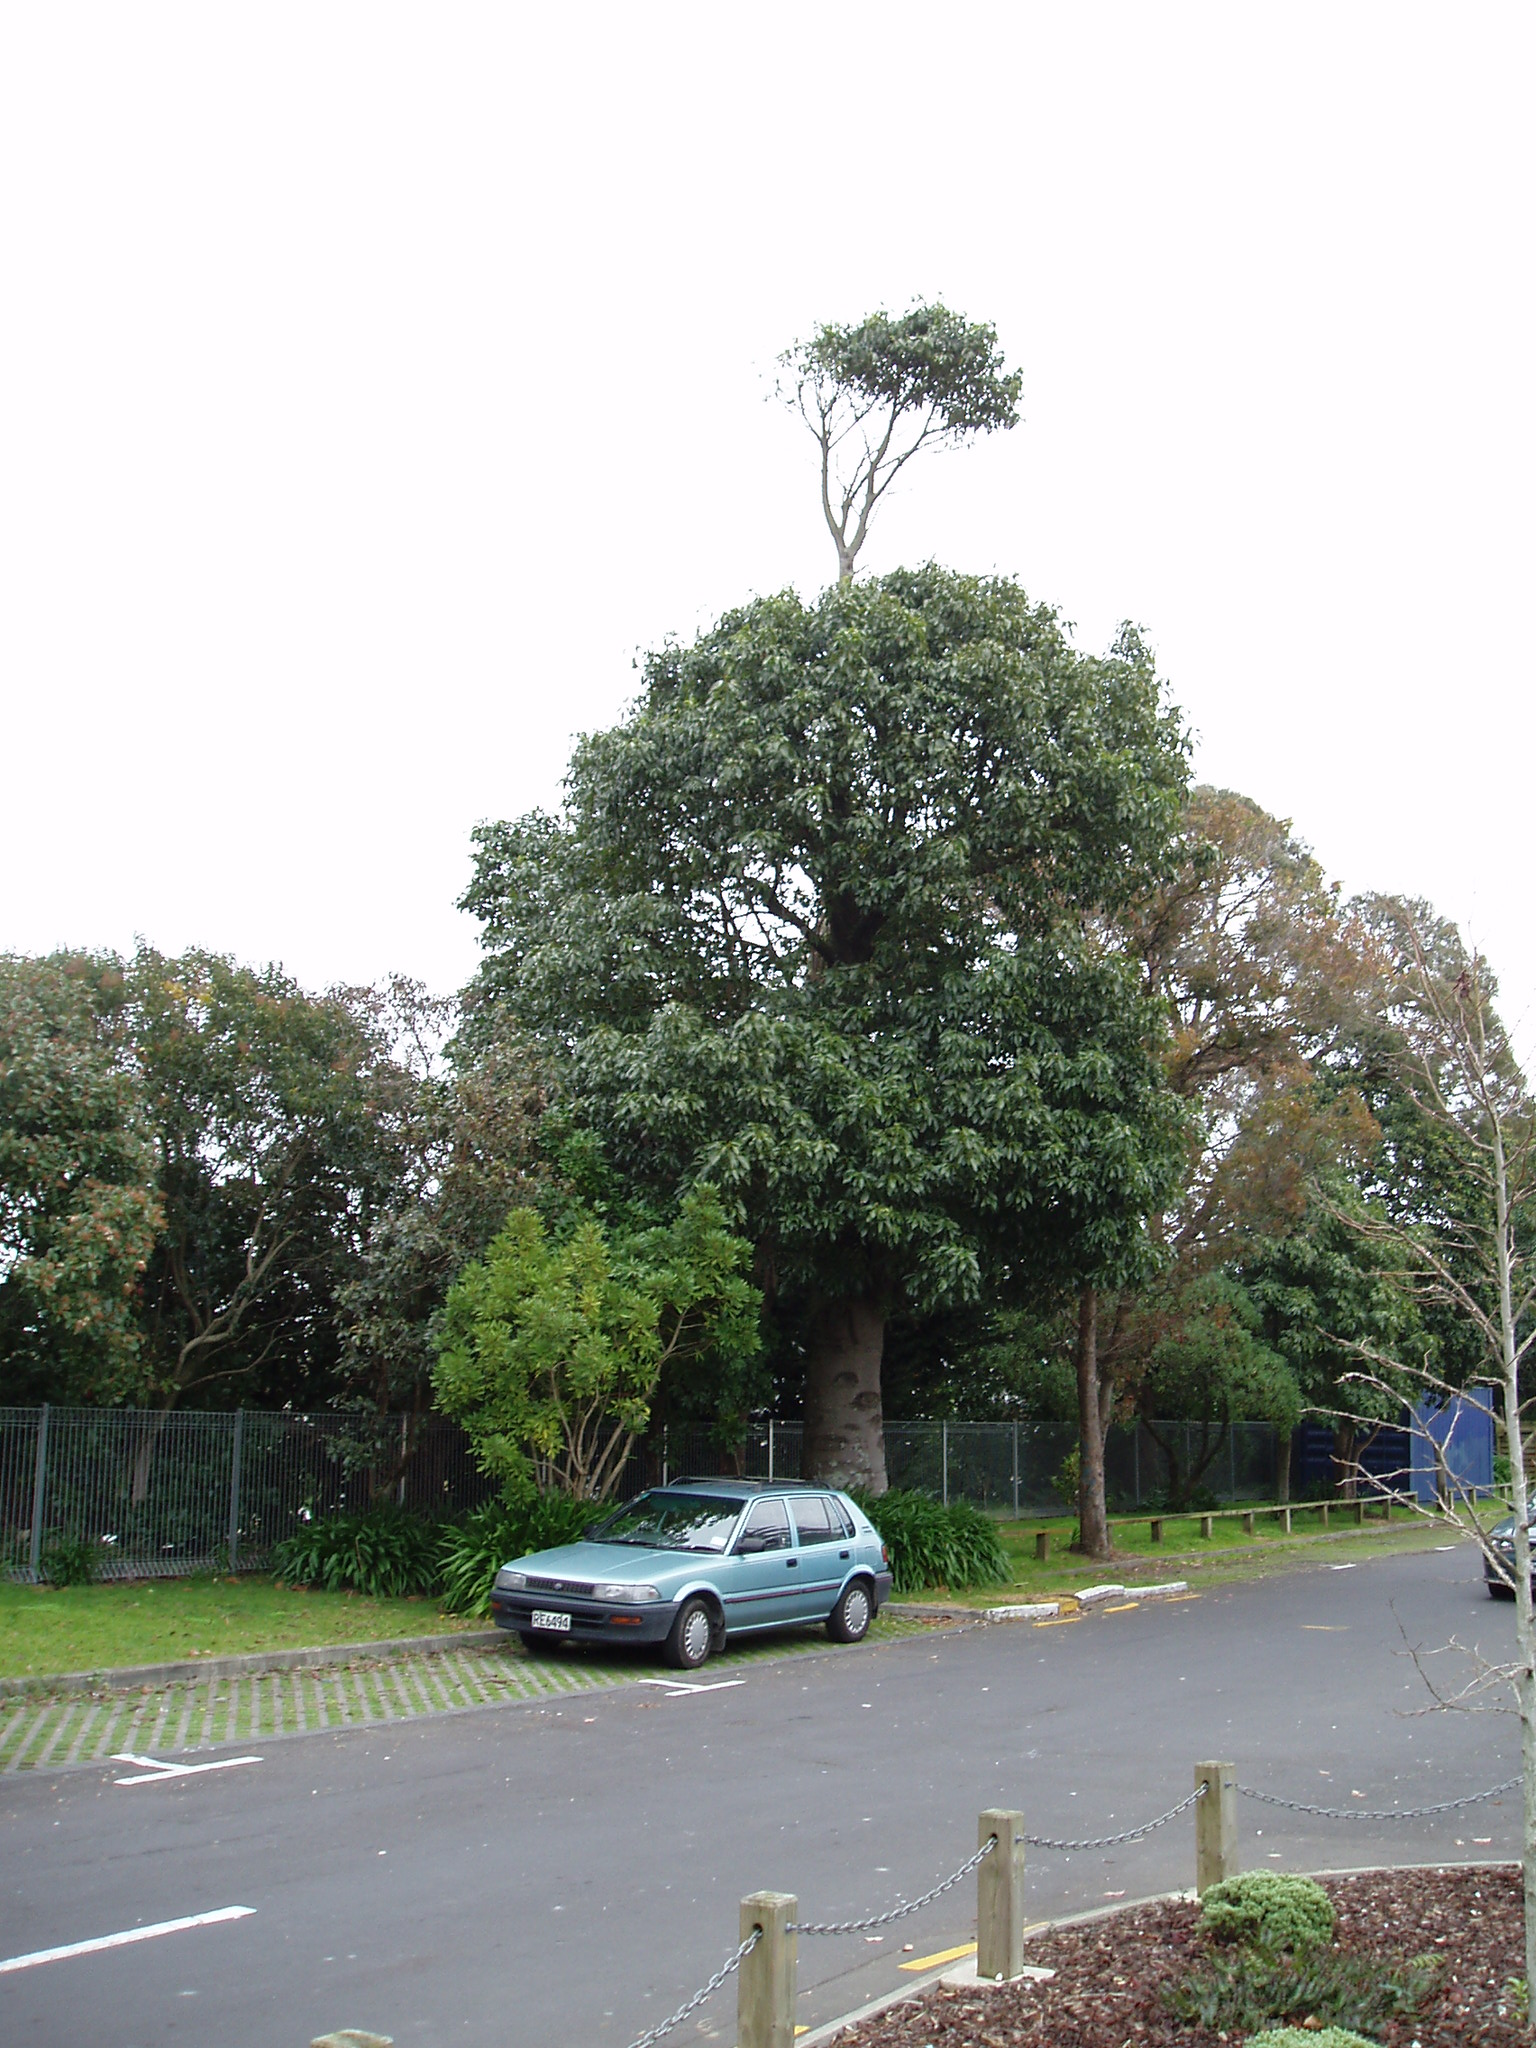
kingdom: Plantae
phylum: Tracheophyta
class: Magnoliopsida
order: Malvales
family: Malvaceae
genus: Brachychiton
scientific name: Brachychiton acerifolius
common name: Illawarra flame tree
